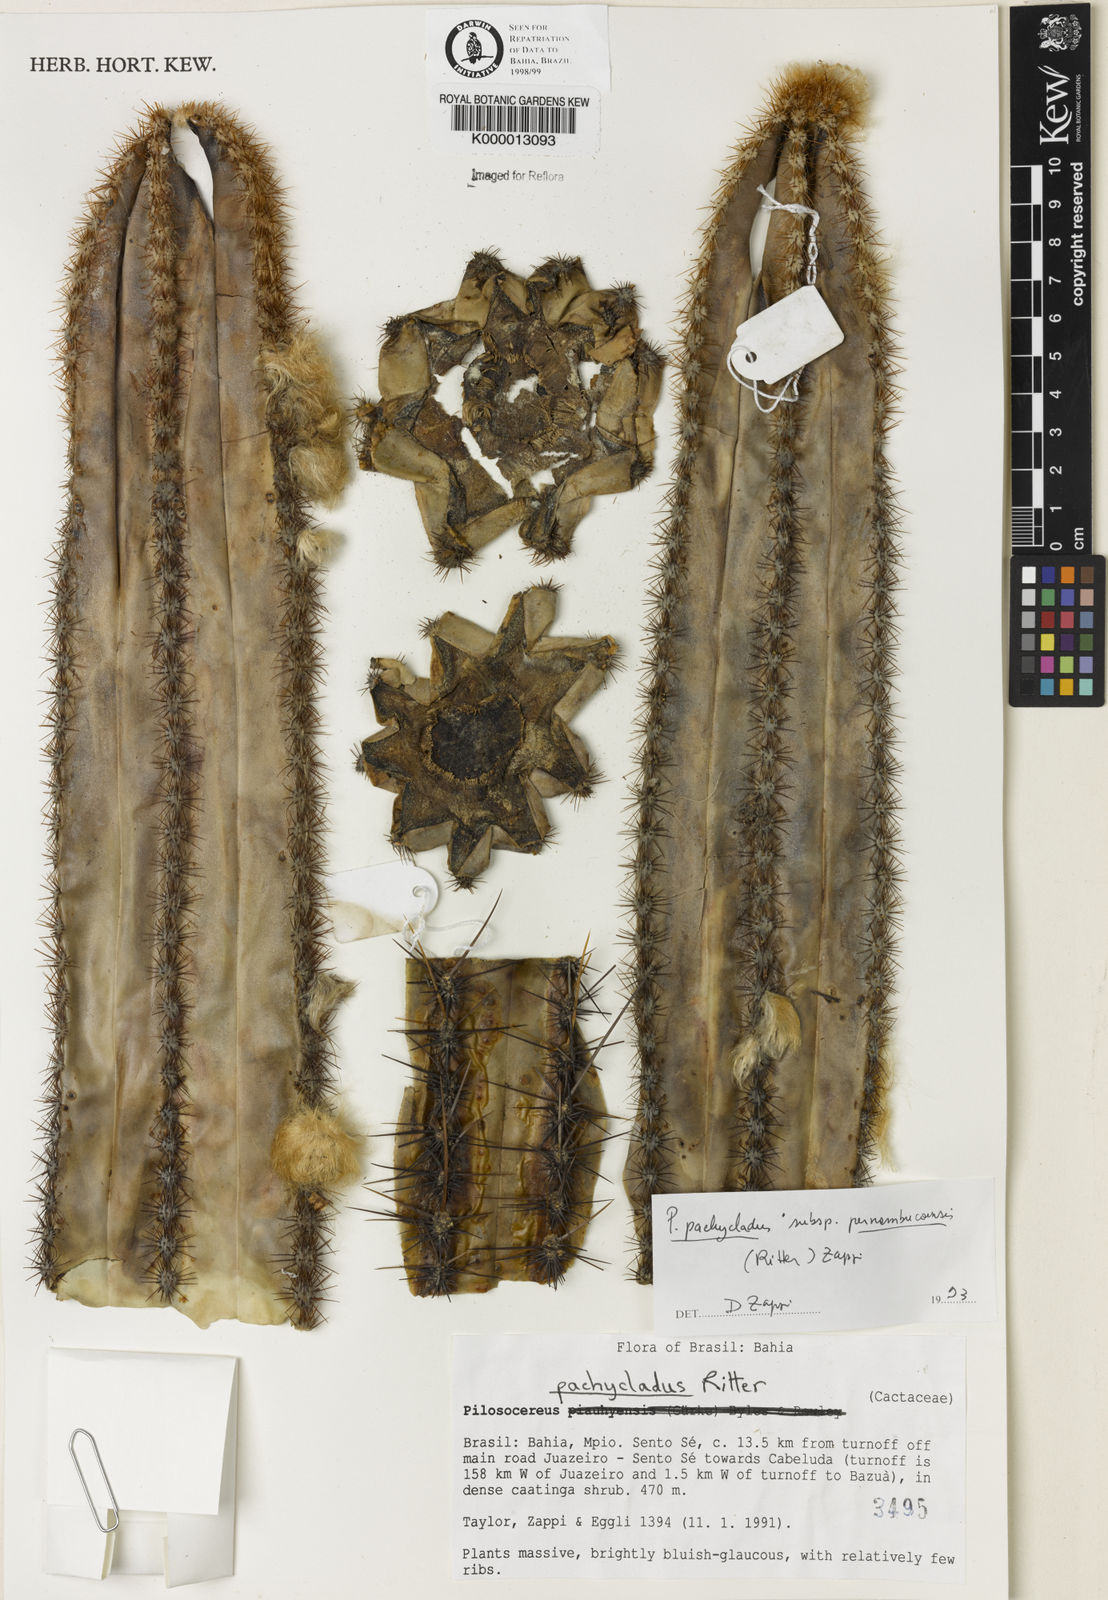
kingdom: Plantae
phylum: Tracheophyta
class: Magnoliopsida
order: Caryophyllales
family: Cactaceae
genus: Pilosocereus
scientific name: Pilosocereus pachycladus
